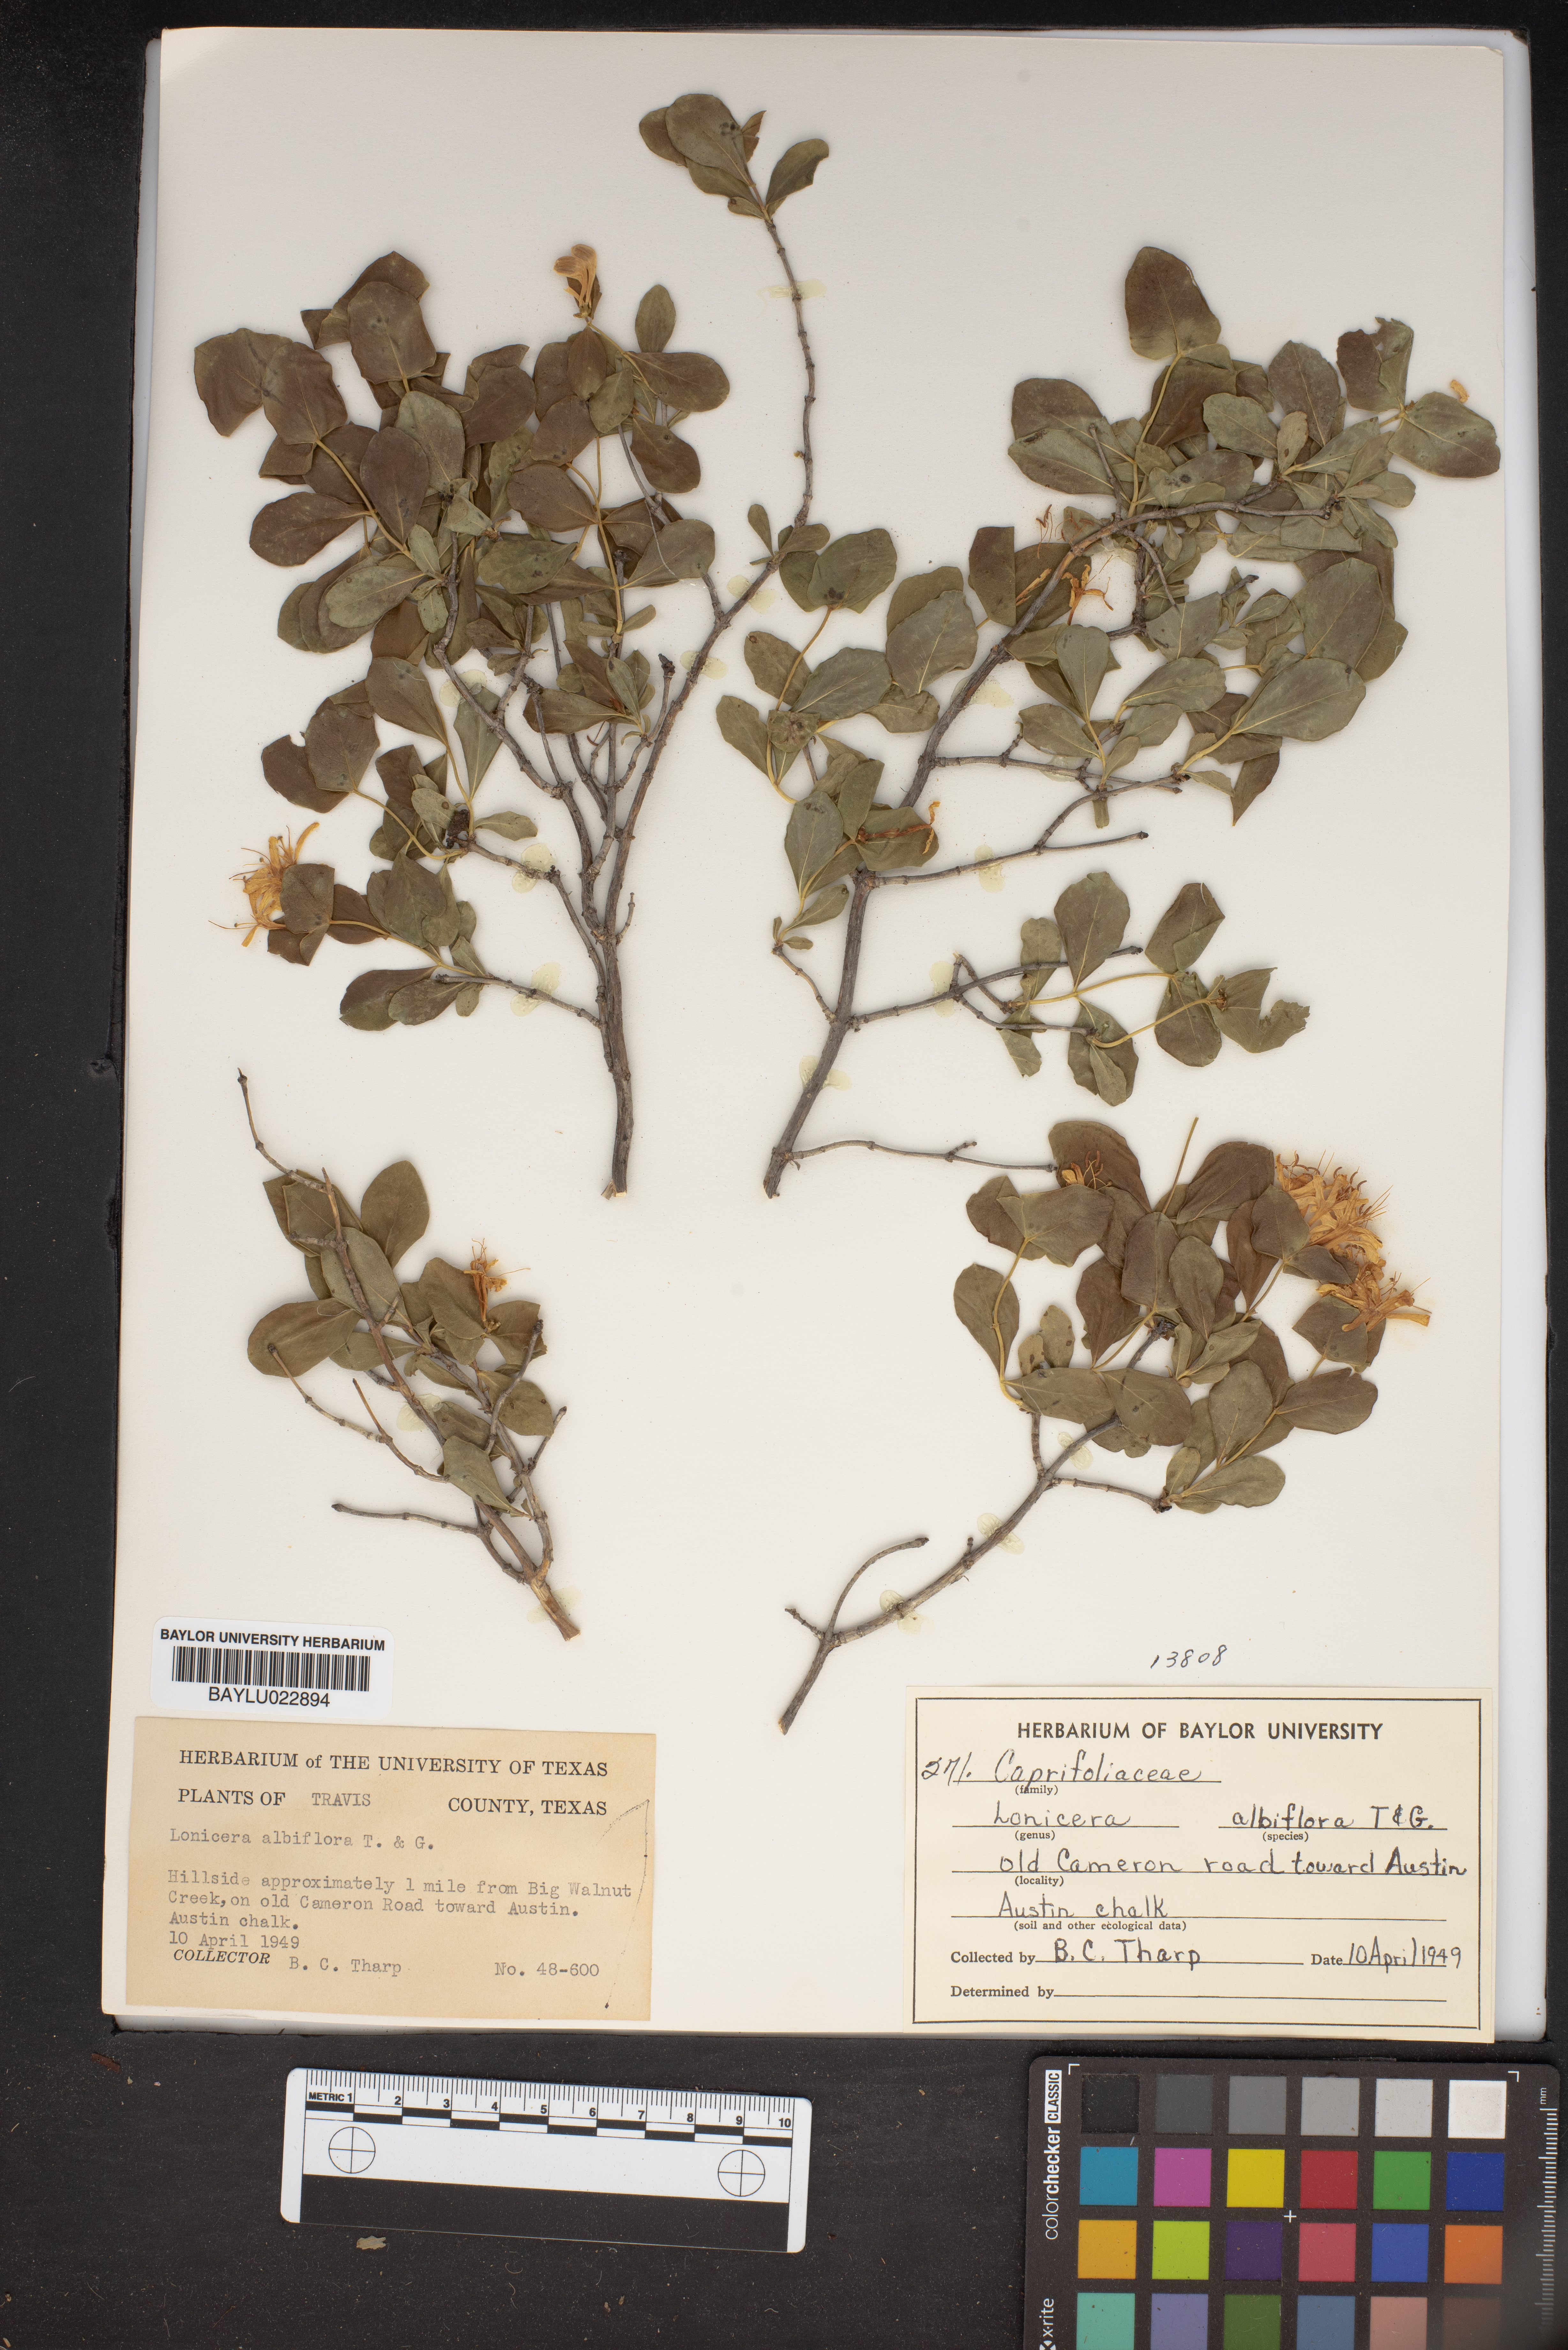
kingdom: Plantae
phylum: Tracheophyta
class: Magnoliopsida
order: Dipsacales
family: Caprifoliaceae
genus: Lonicera
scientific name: Lonicera albiflora
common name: White honeysuckle
